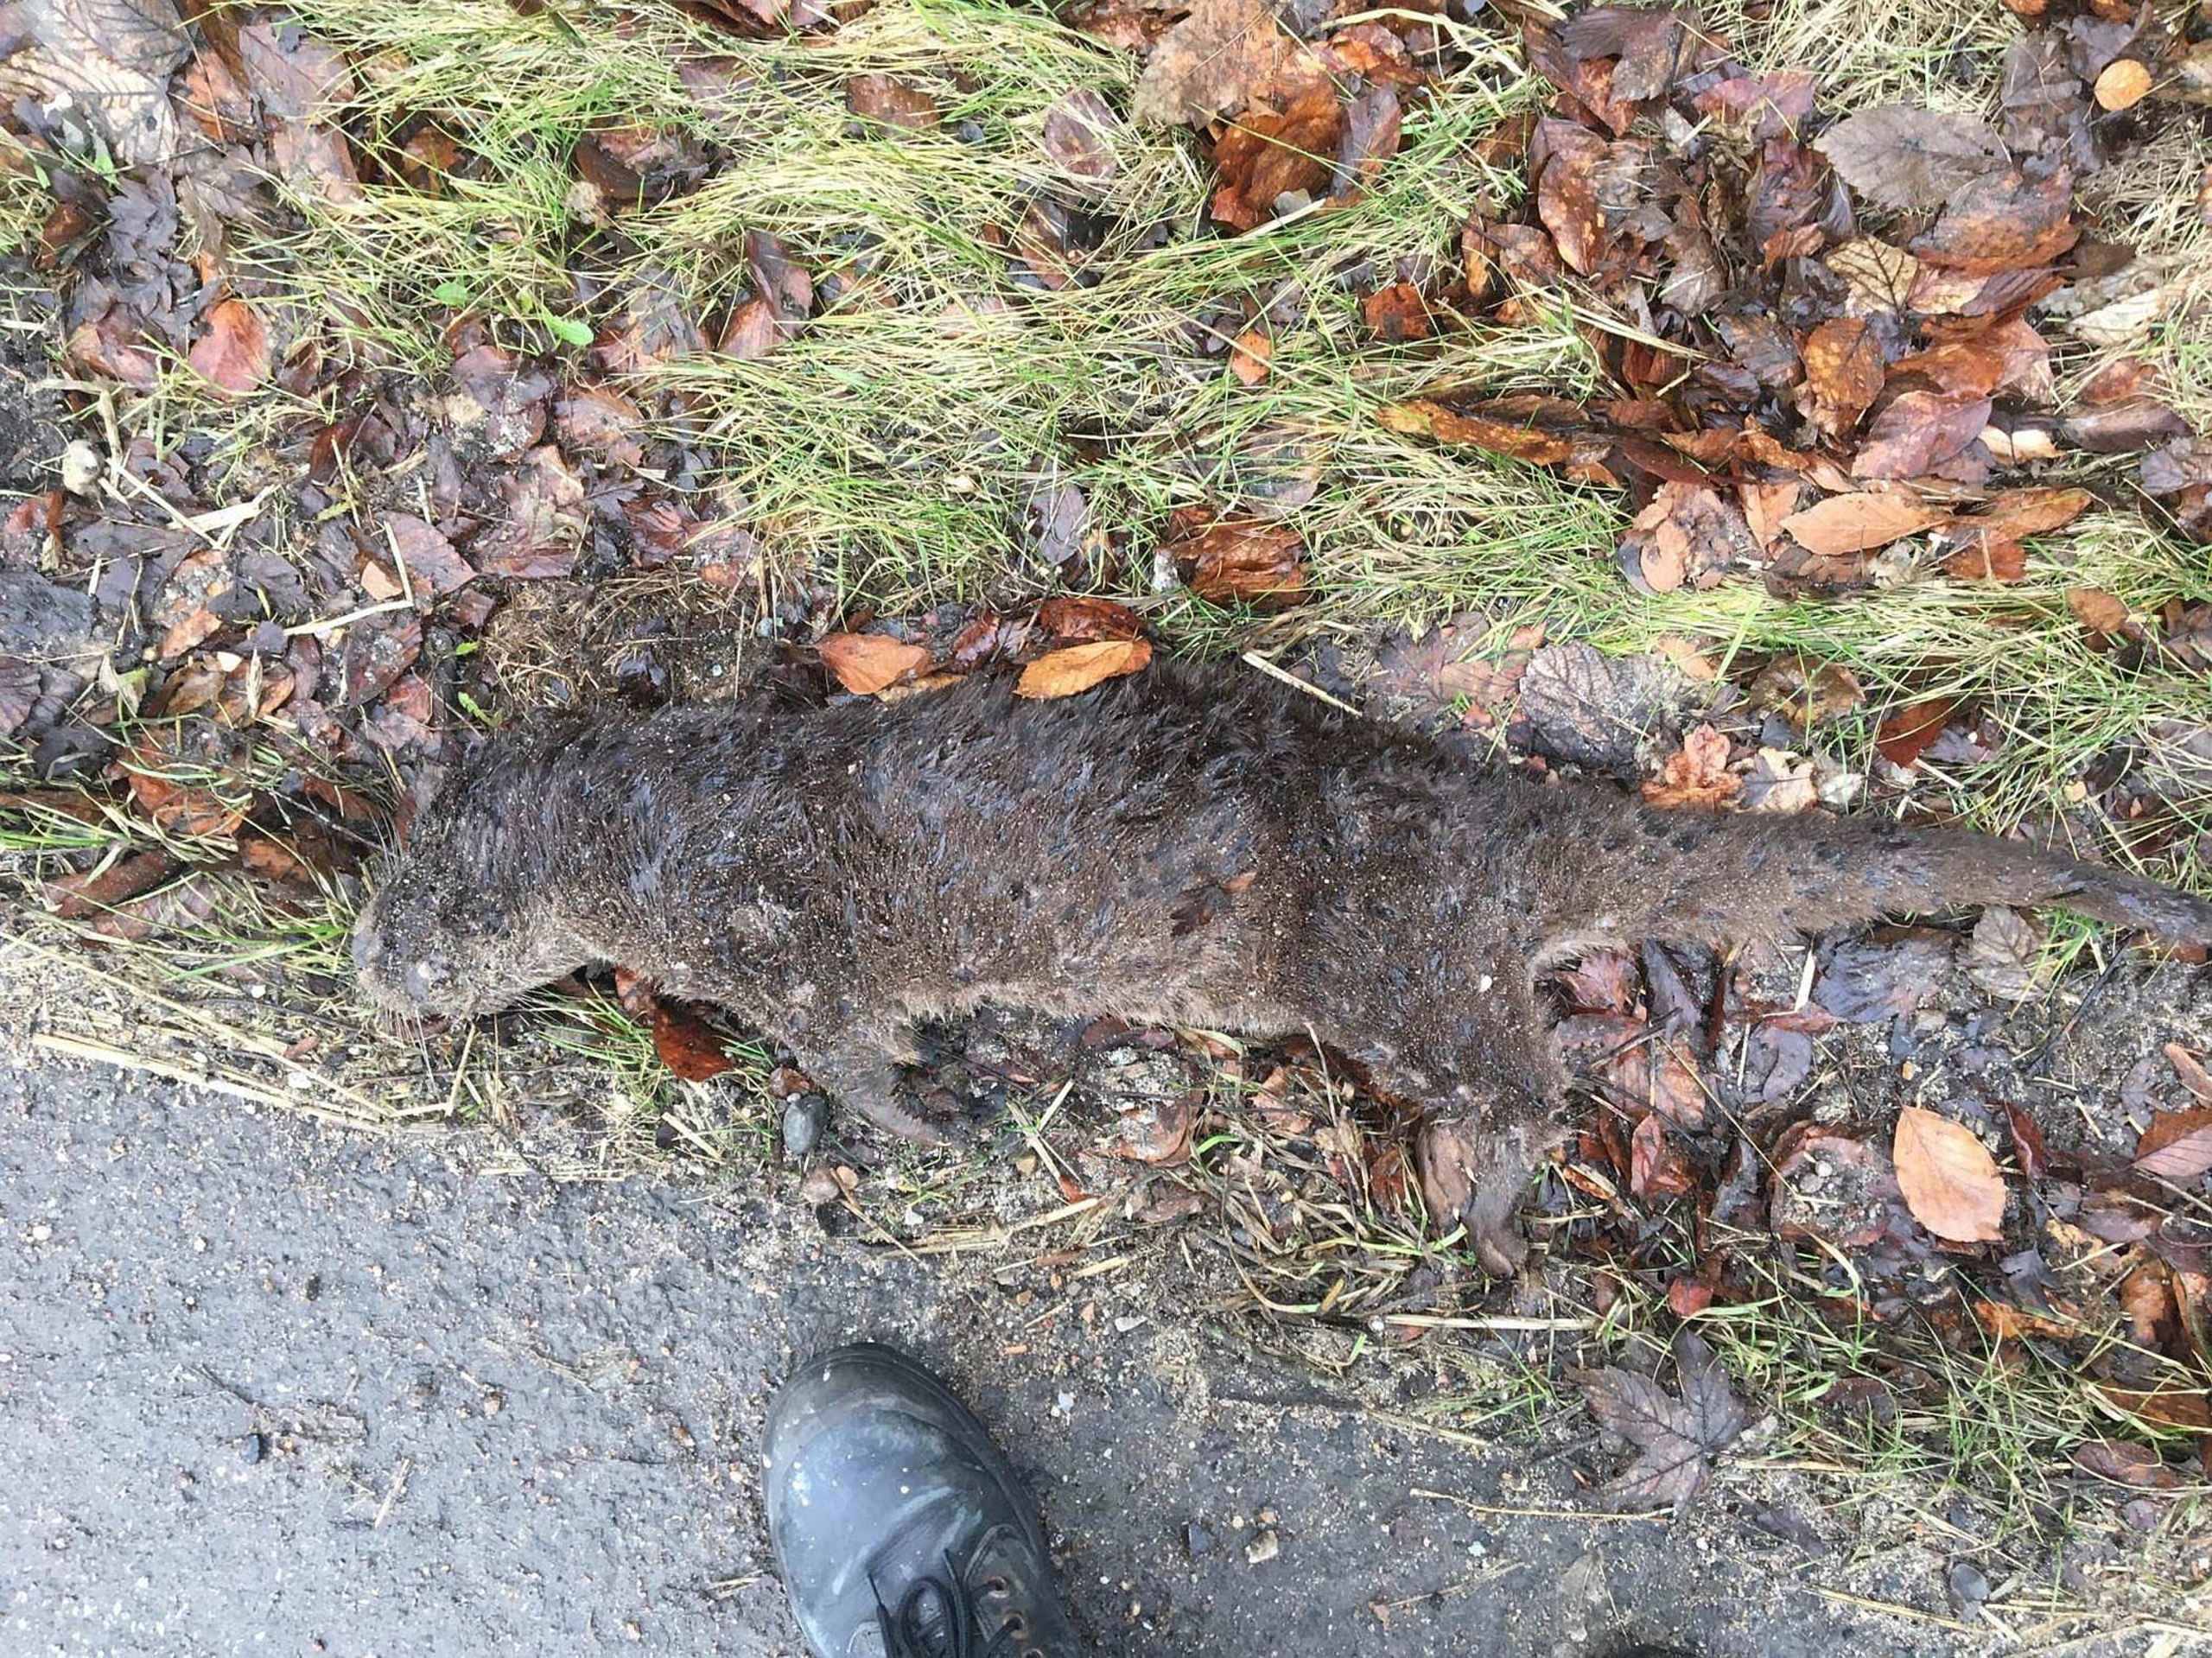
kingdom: Animalia
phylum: Chordata
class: Mammalia
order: Carnivora
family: Mustelidae
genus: Lutra
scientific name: Lutra lutra
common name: Odder
